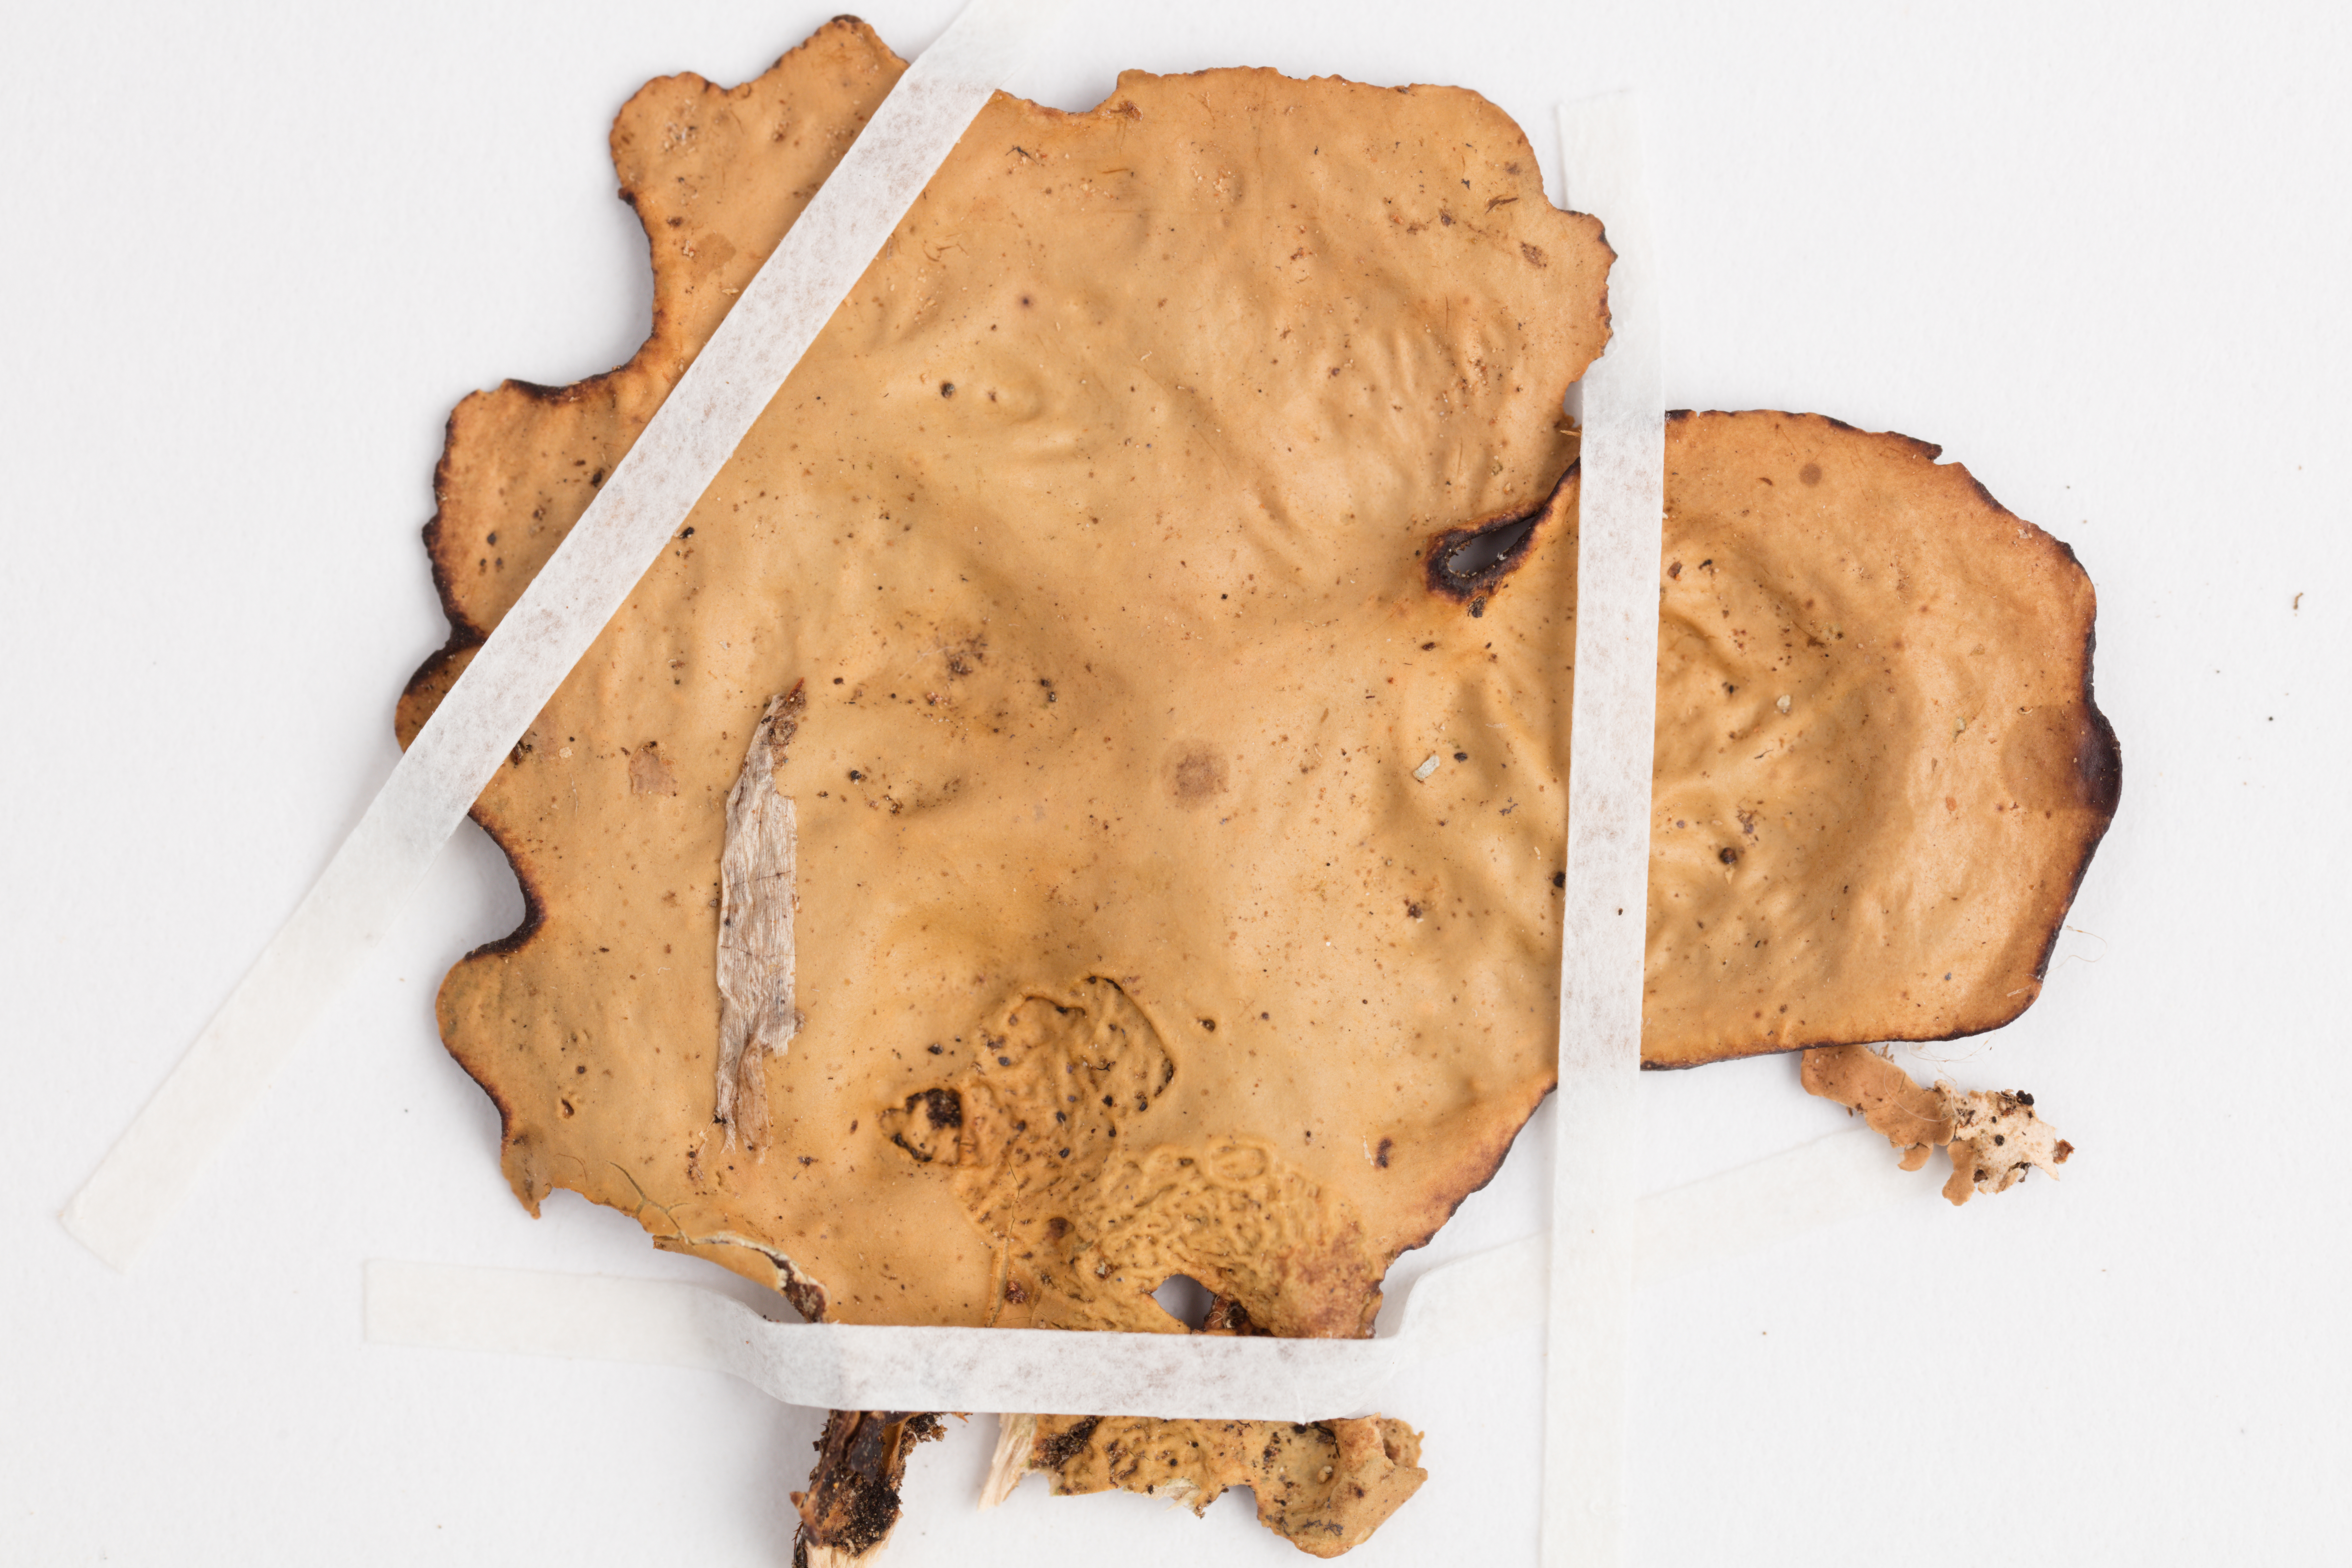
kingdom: Fungi
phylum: Ascomycota
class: Lecanoromycetes
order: Peltigerales
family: Lobariaceae
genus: Sticta
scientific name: Sticta latifrons
